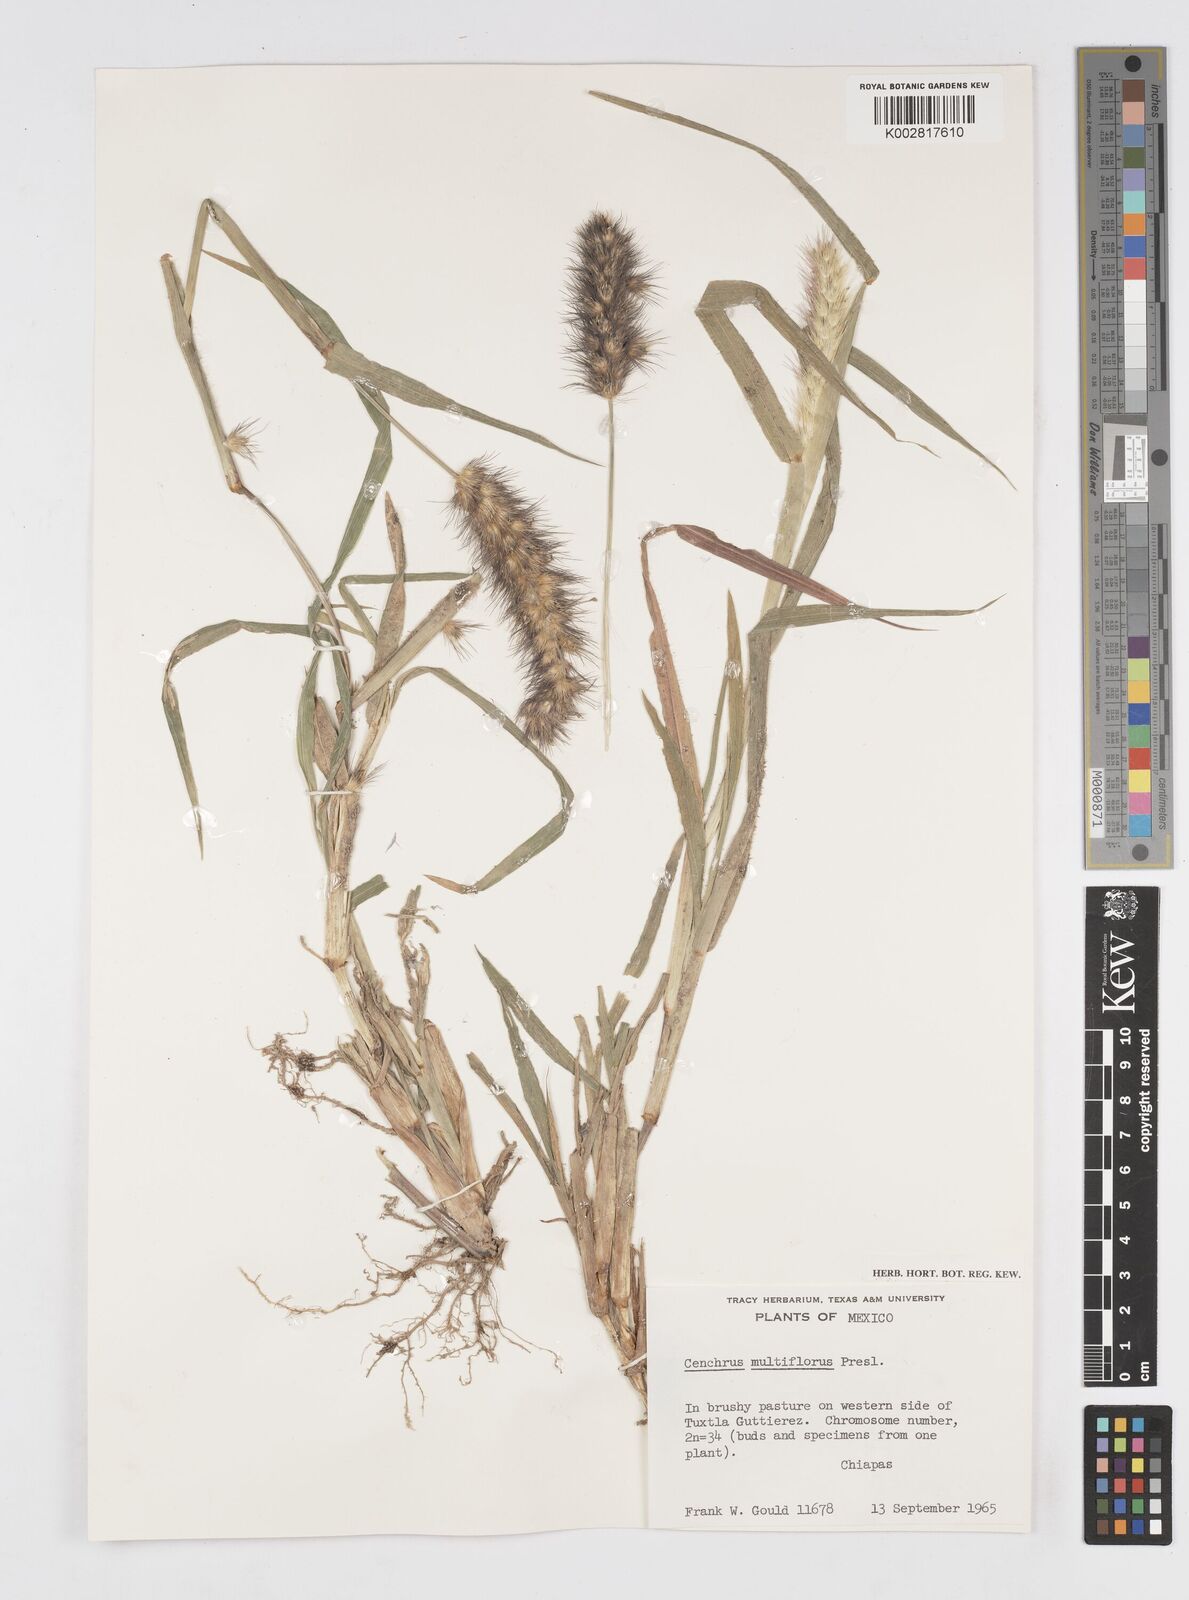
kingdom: Plantae
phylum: Tracheophyta
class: Liliopsida
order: Poales
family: Poaceae
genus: Cenchrus
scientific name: Cenchrus multiflorus
